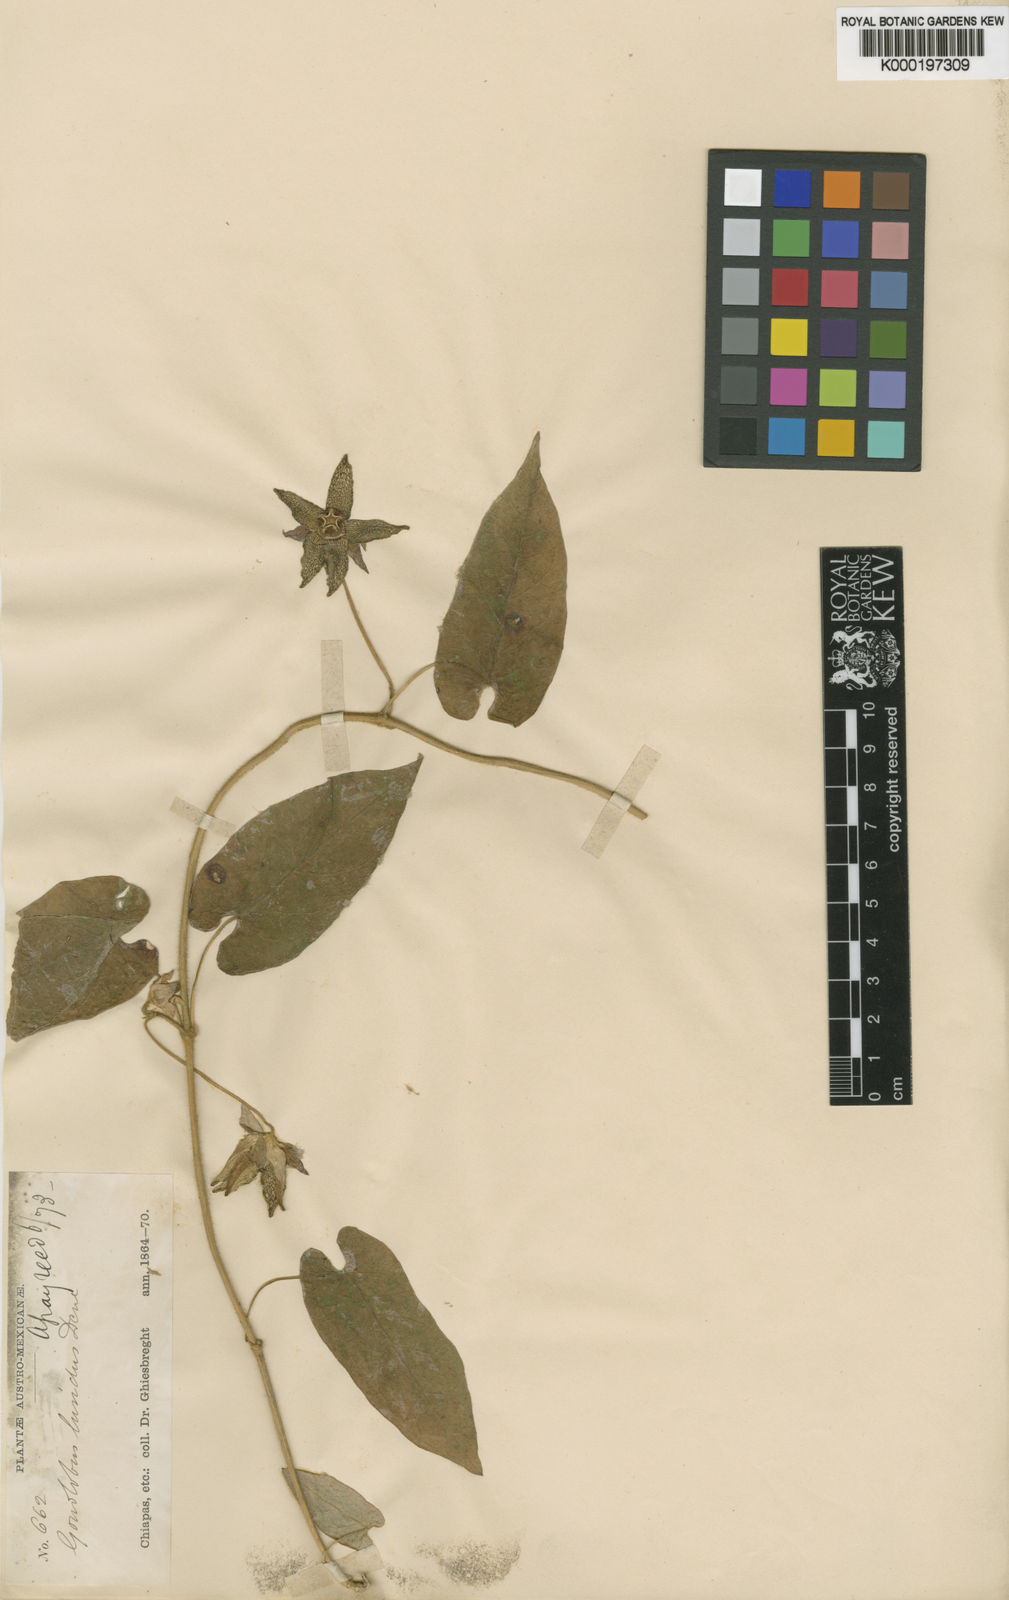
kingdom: Plantae
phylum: Tracheophyta
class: Magnoliopsida
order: Gentianales
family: Apocynaceae
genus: Gonolobus
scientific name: Gonolobus luridus
